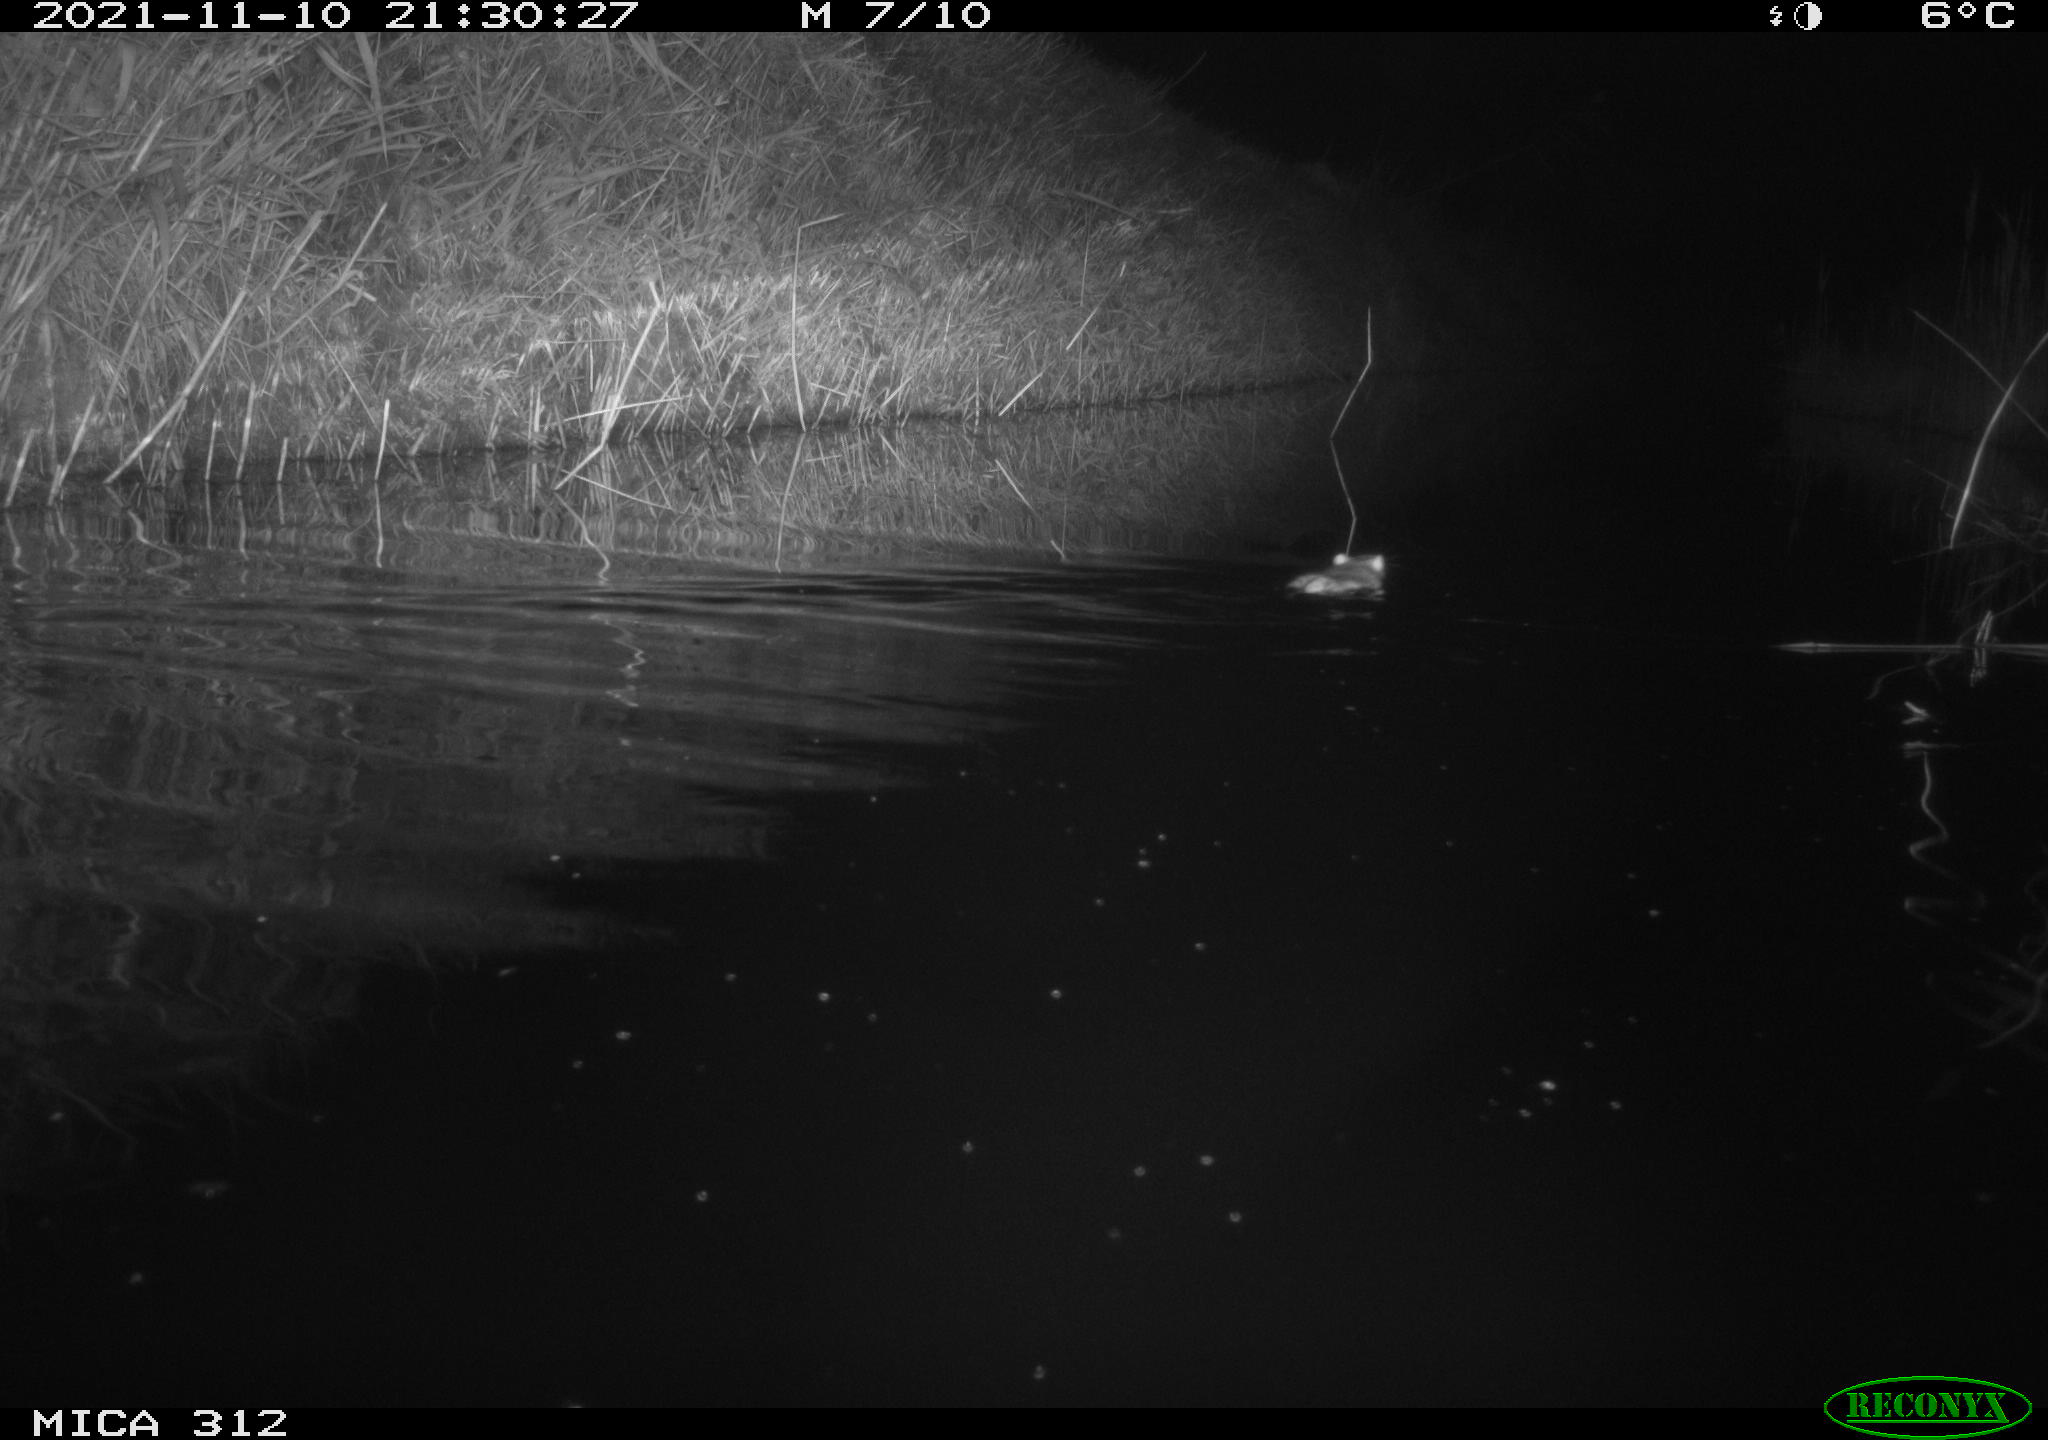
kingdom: Animalia
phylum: Chordata
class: Mammalia
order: Rodentia
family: Muridae
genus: Rattus
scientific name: Rattus norvegicus
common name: Brown rat
